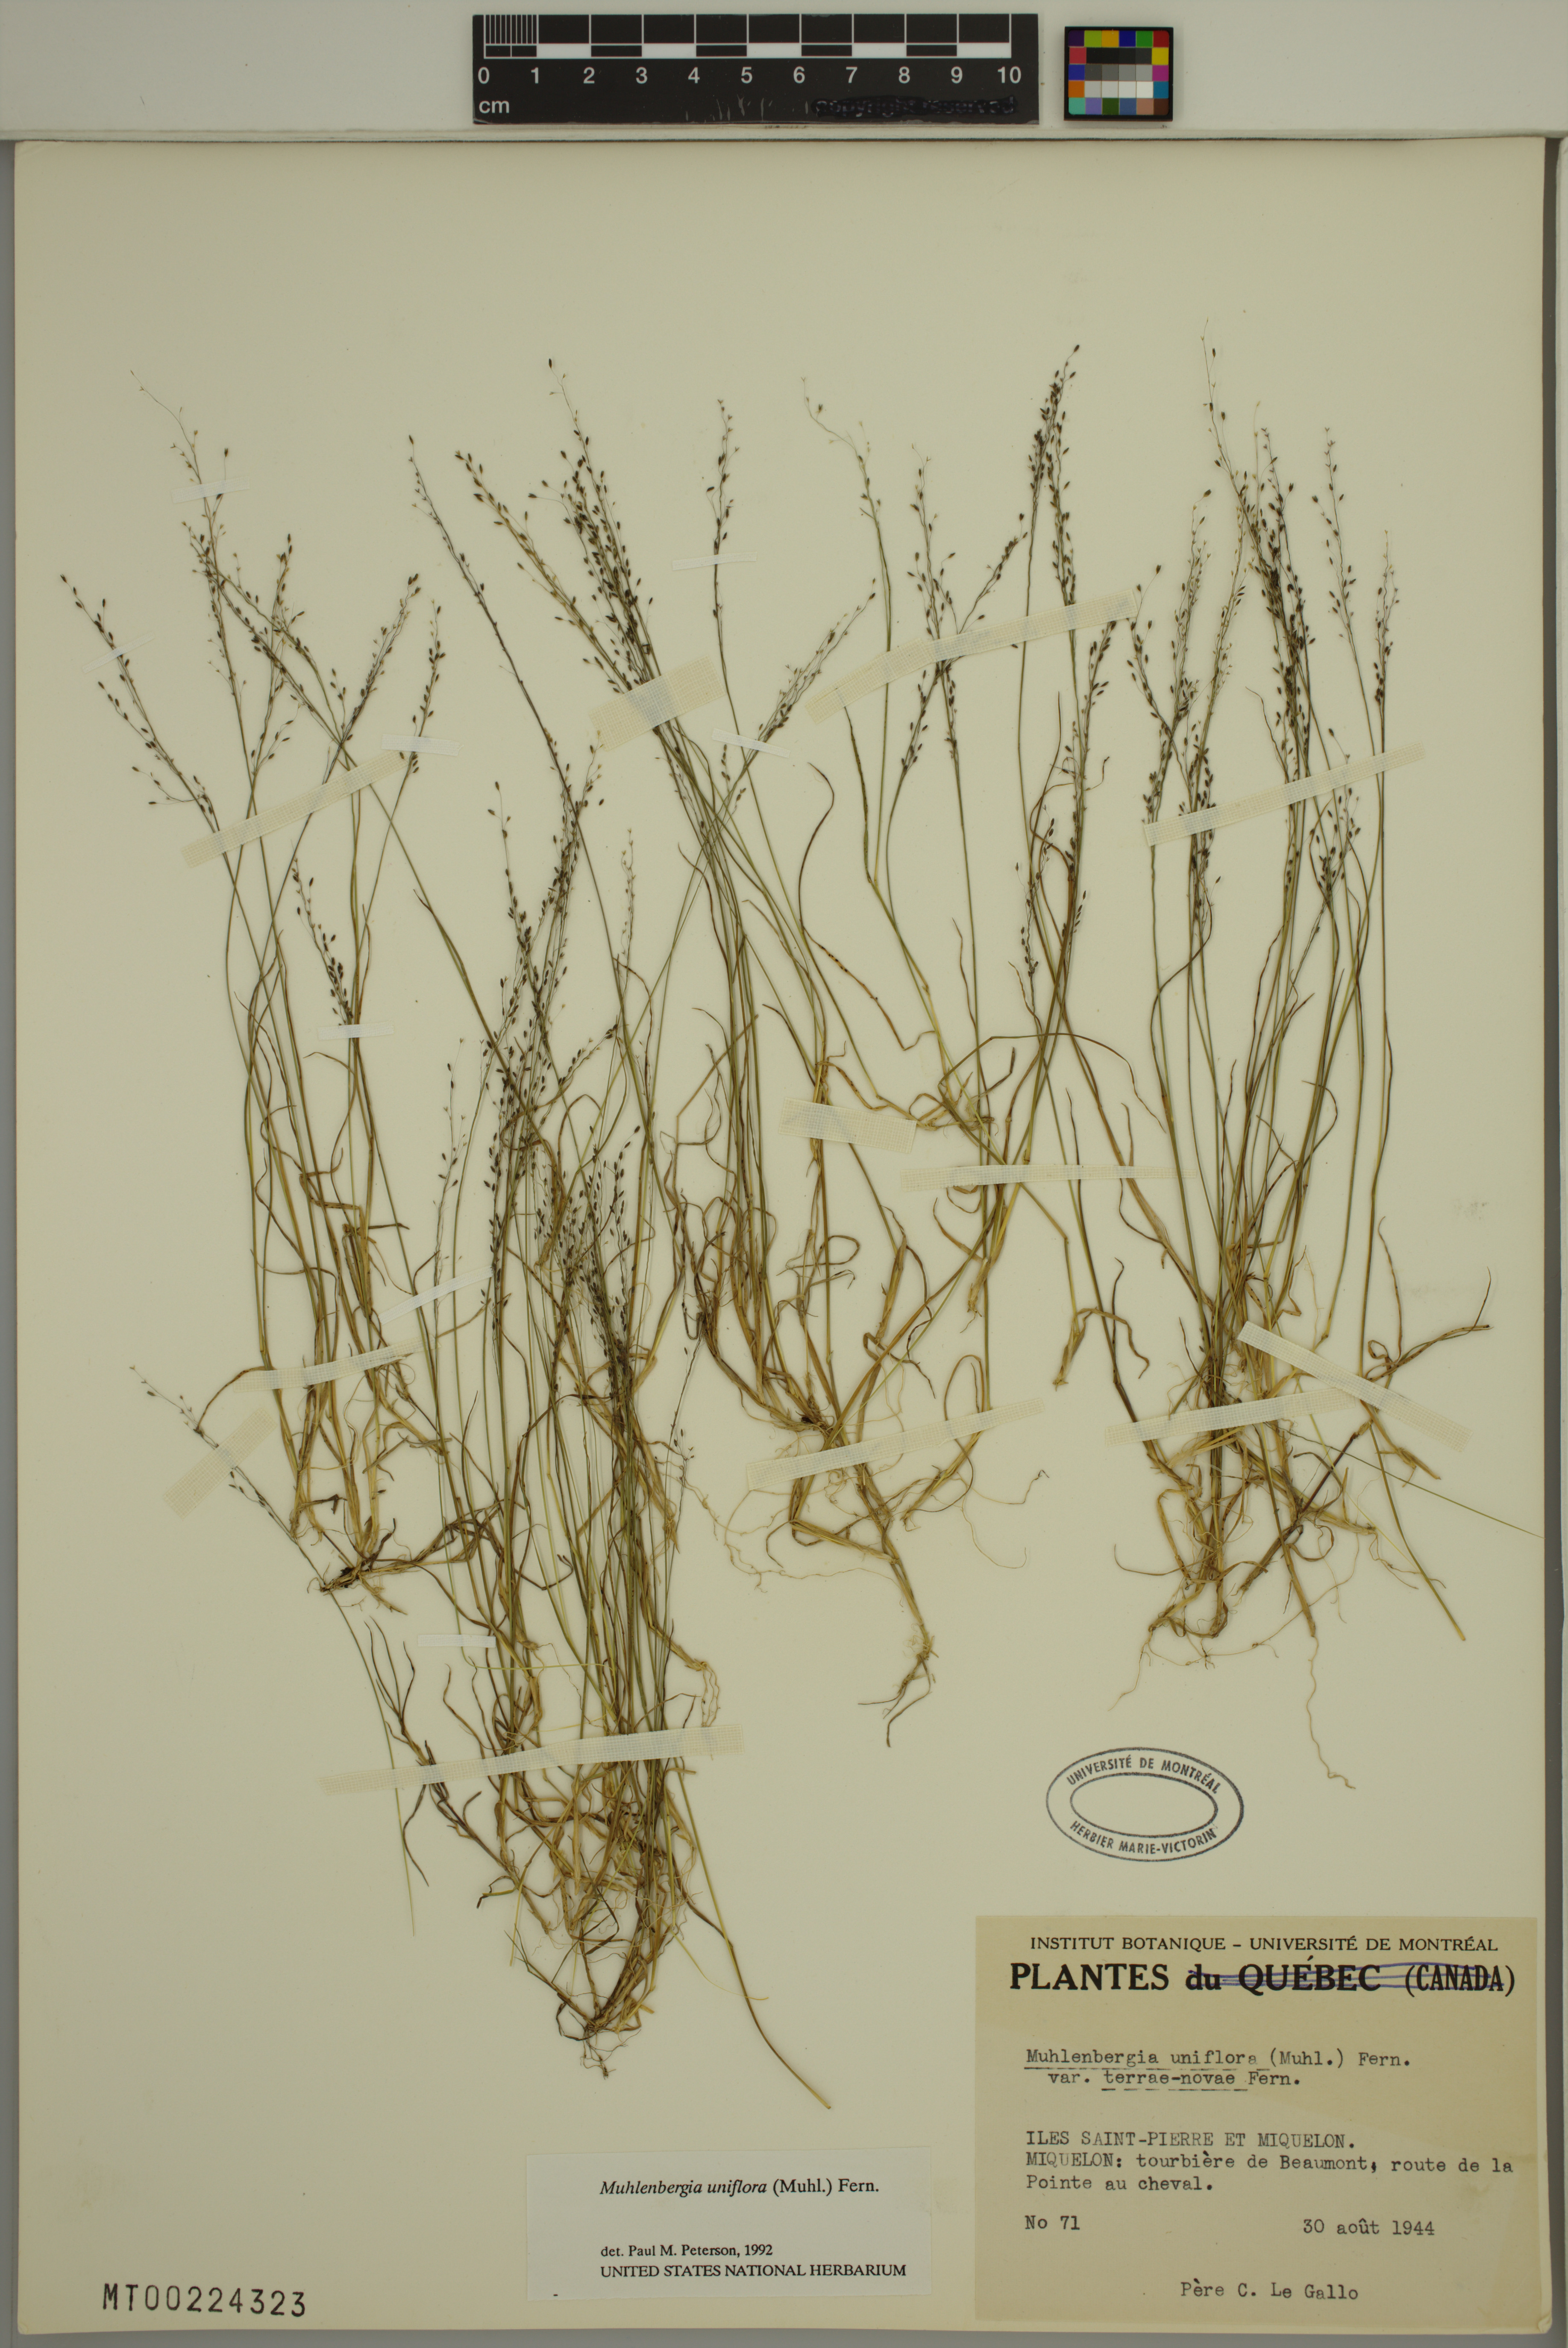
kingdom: Plantae
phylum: Tracheophyta
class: Liliopsida
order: Poales
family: Poaceae
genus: Muhlenbergia
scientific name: Muhlenbergia uniflora
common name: Bog muhly
